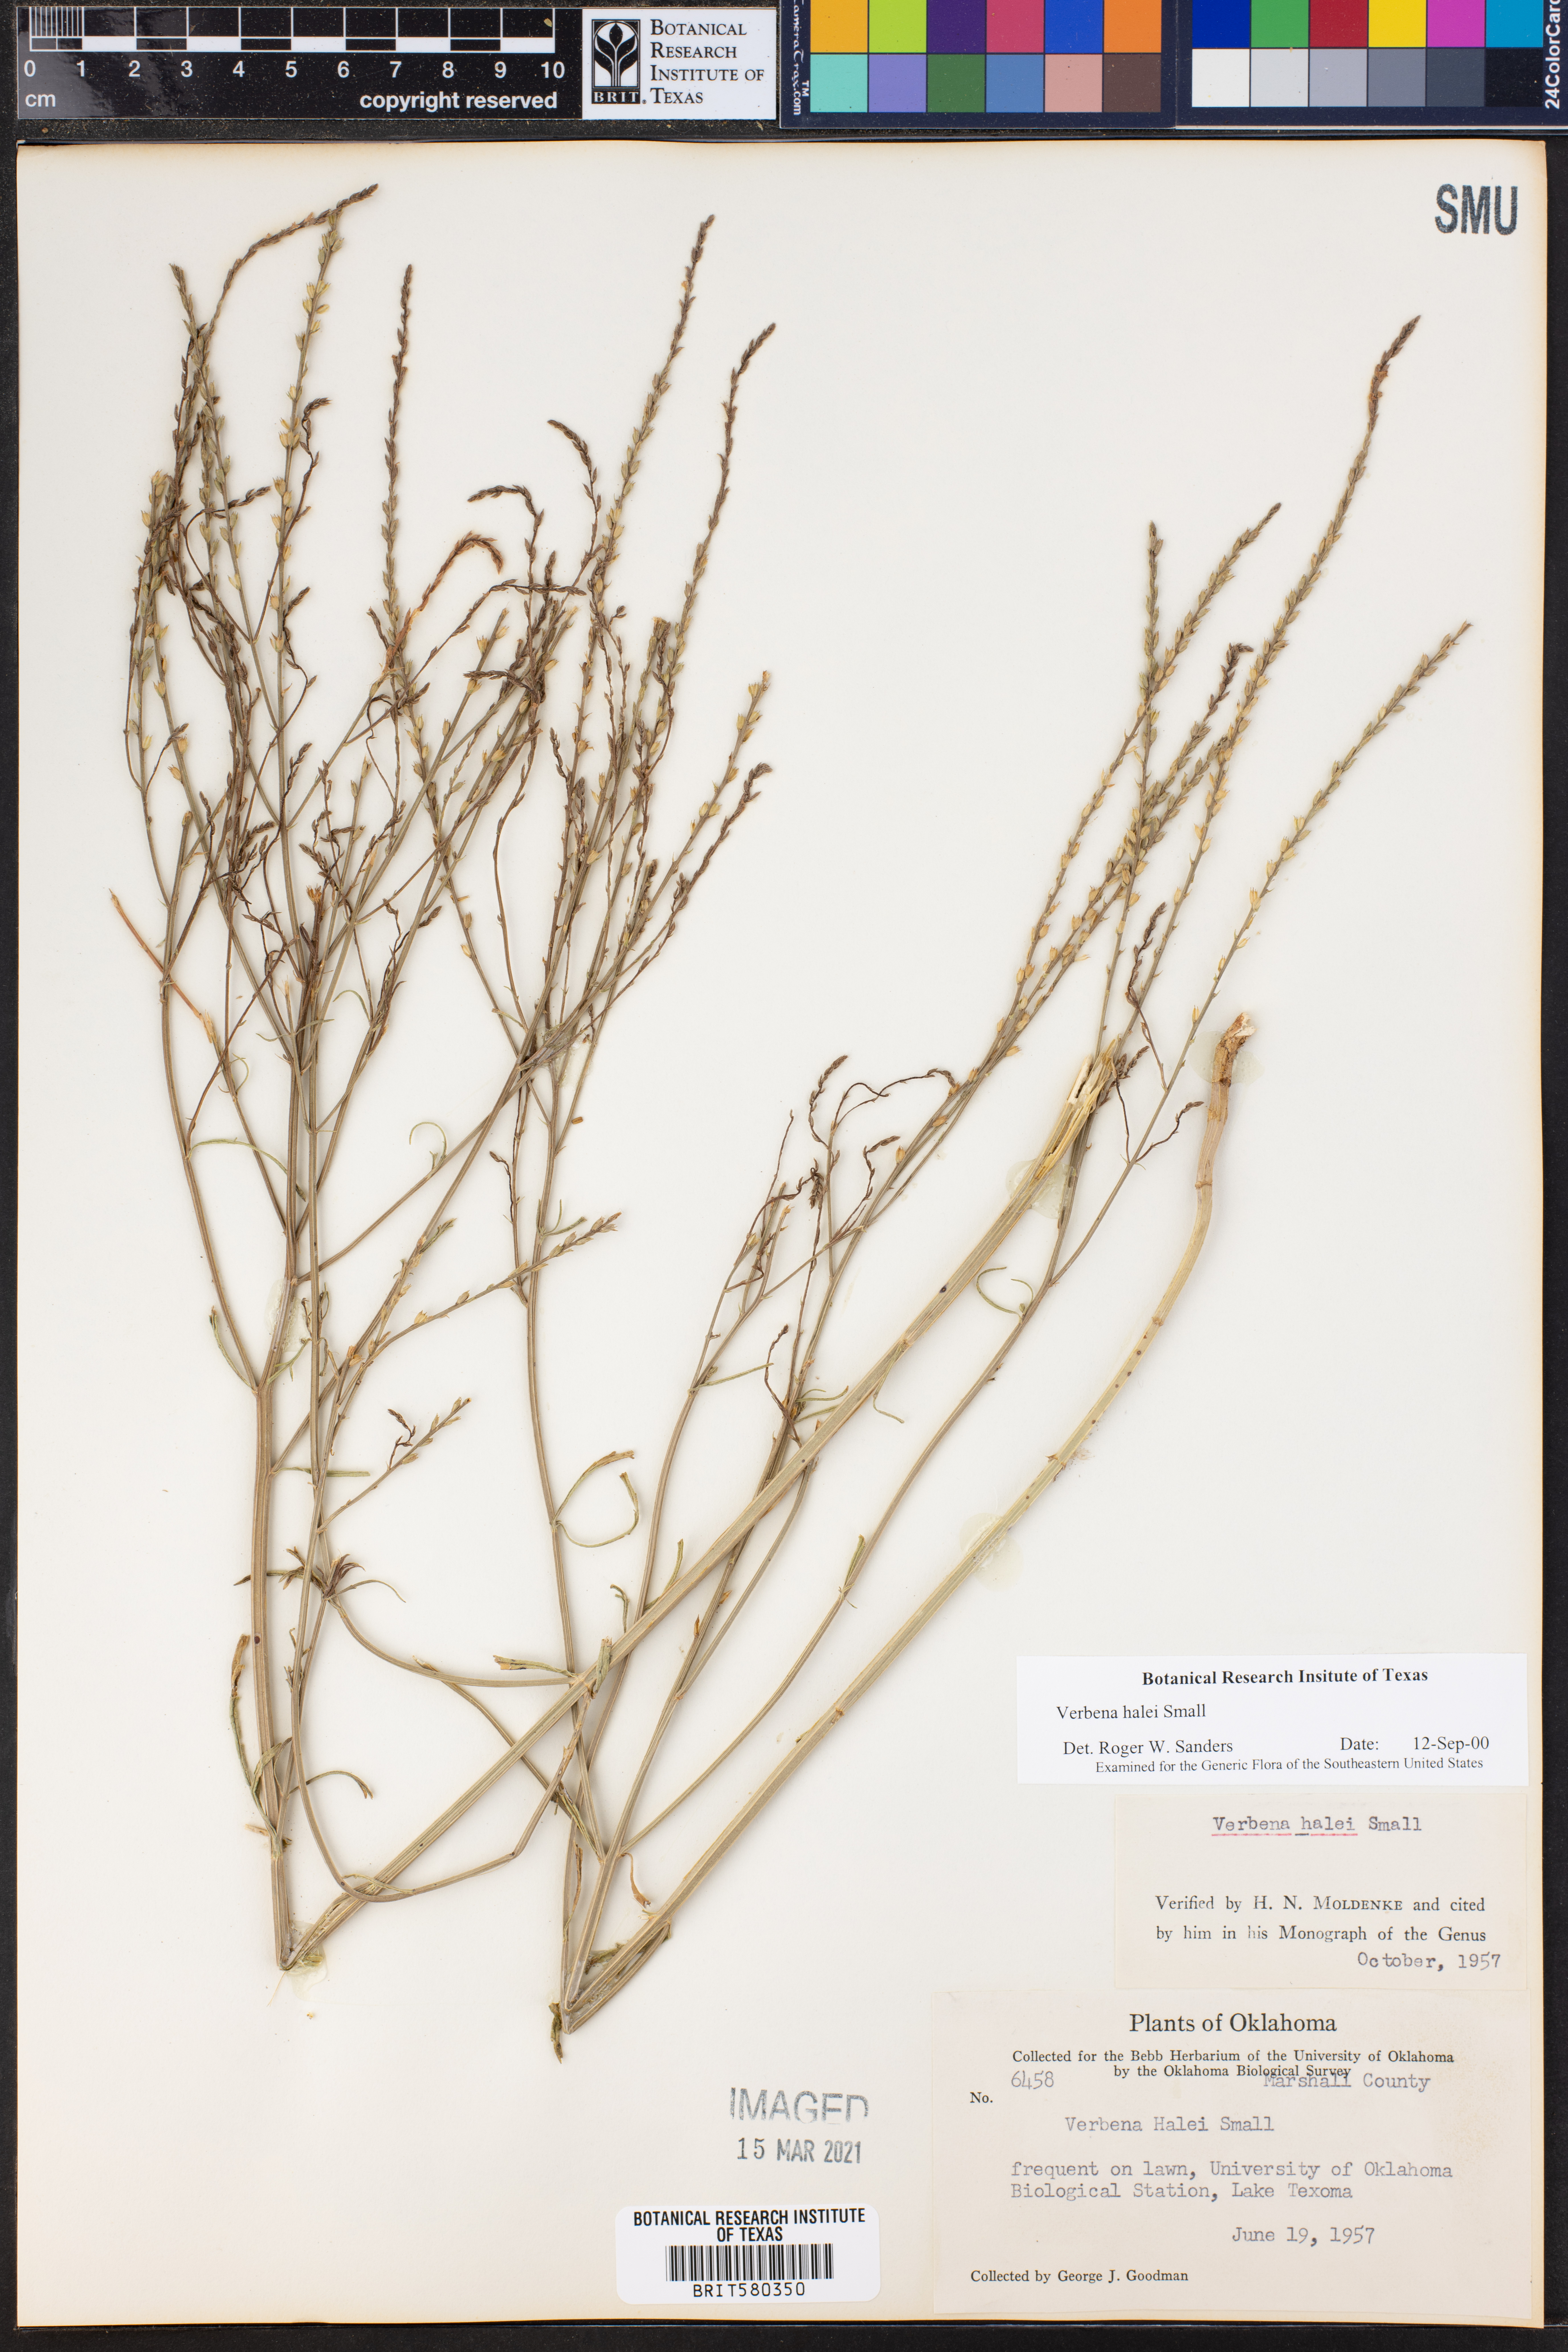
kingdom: Plantae
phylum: Tracheophyta
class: Magnoliopsida
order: Lamiales
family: Verbenaceae
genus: Verbena
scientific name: Verbena halei
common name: Texas vervain
